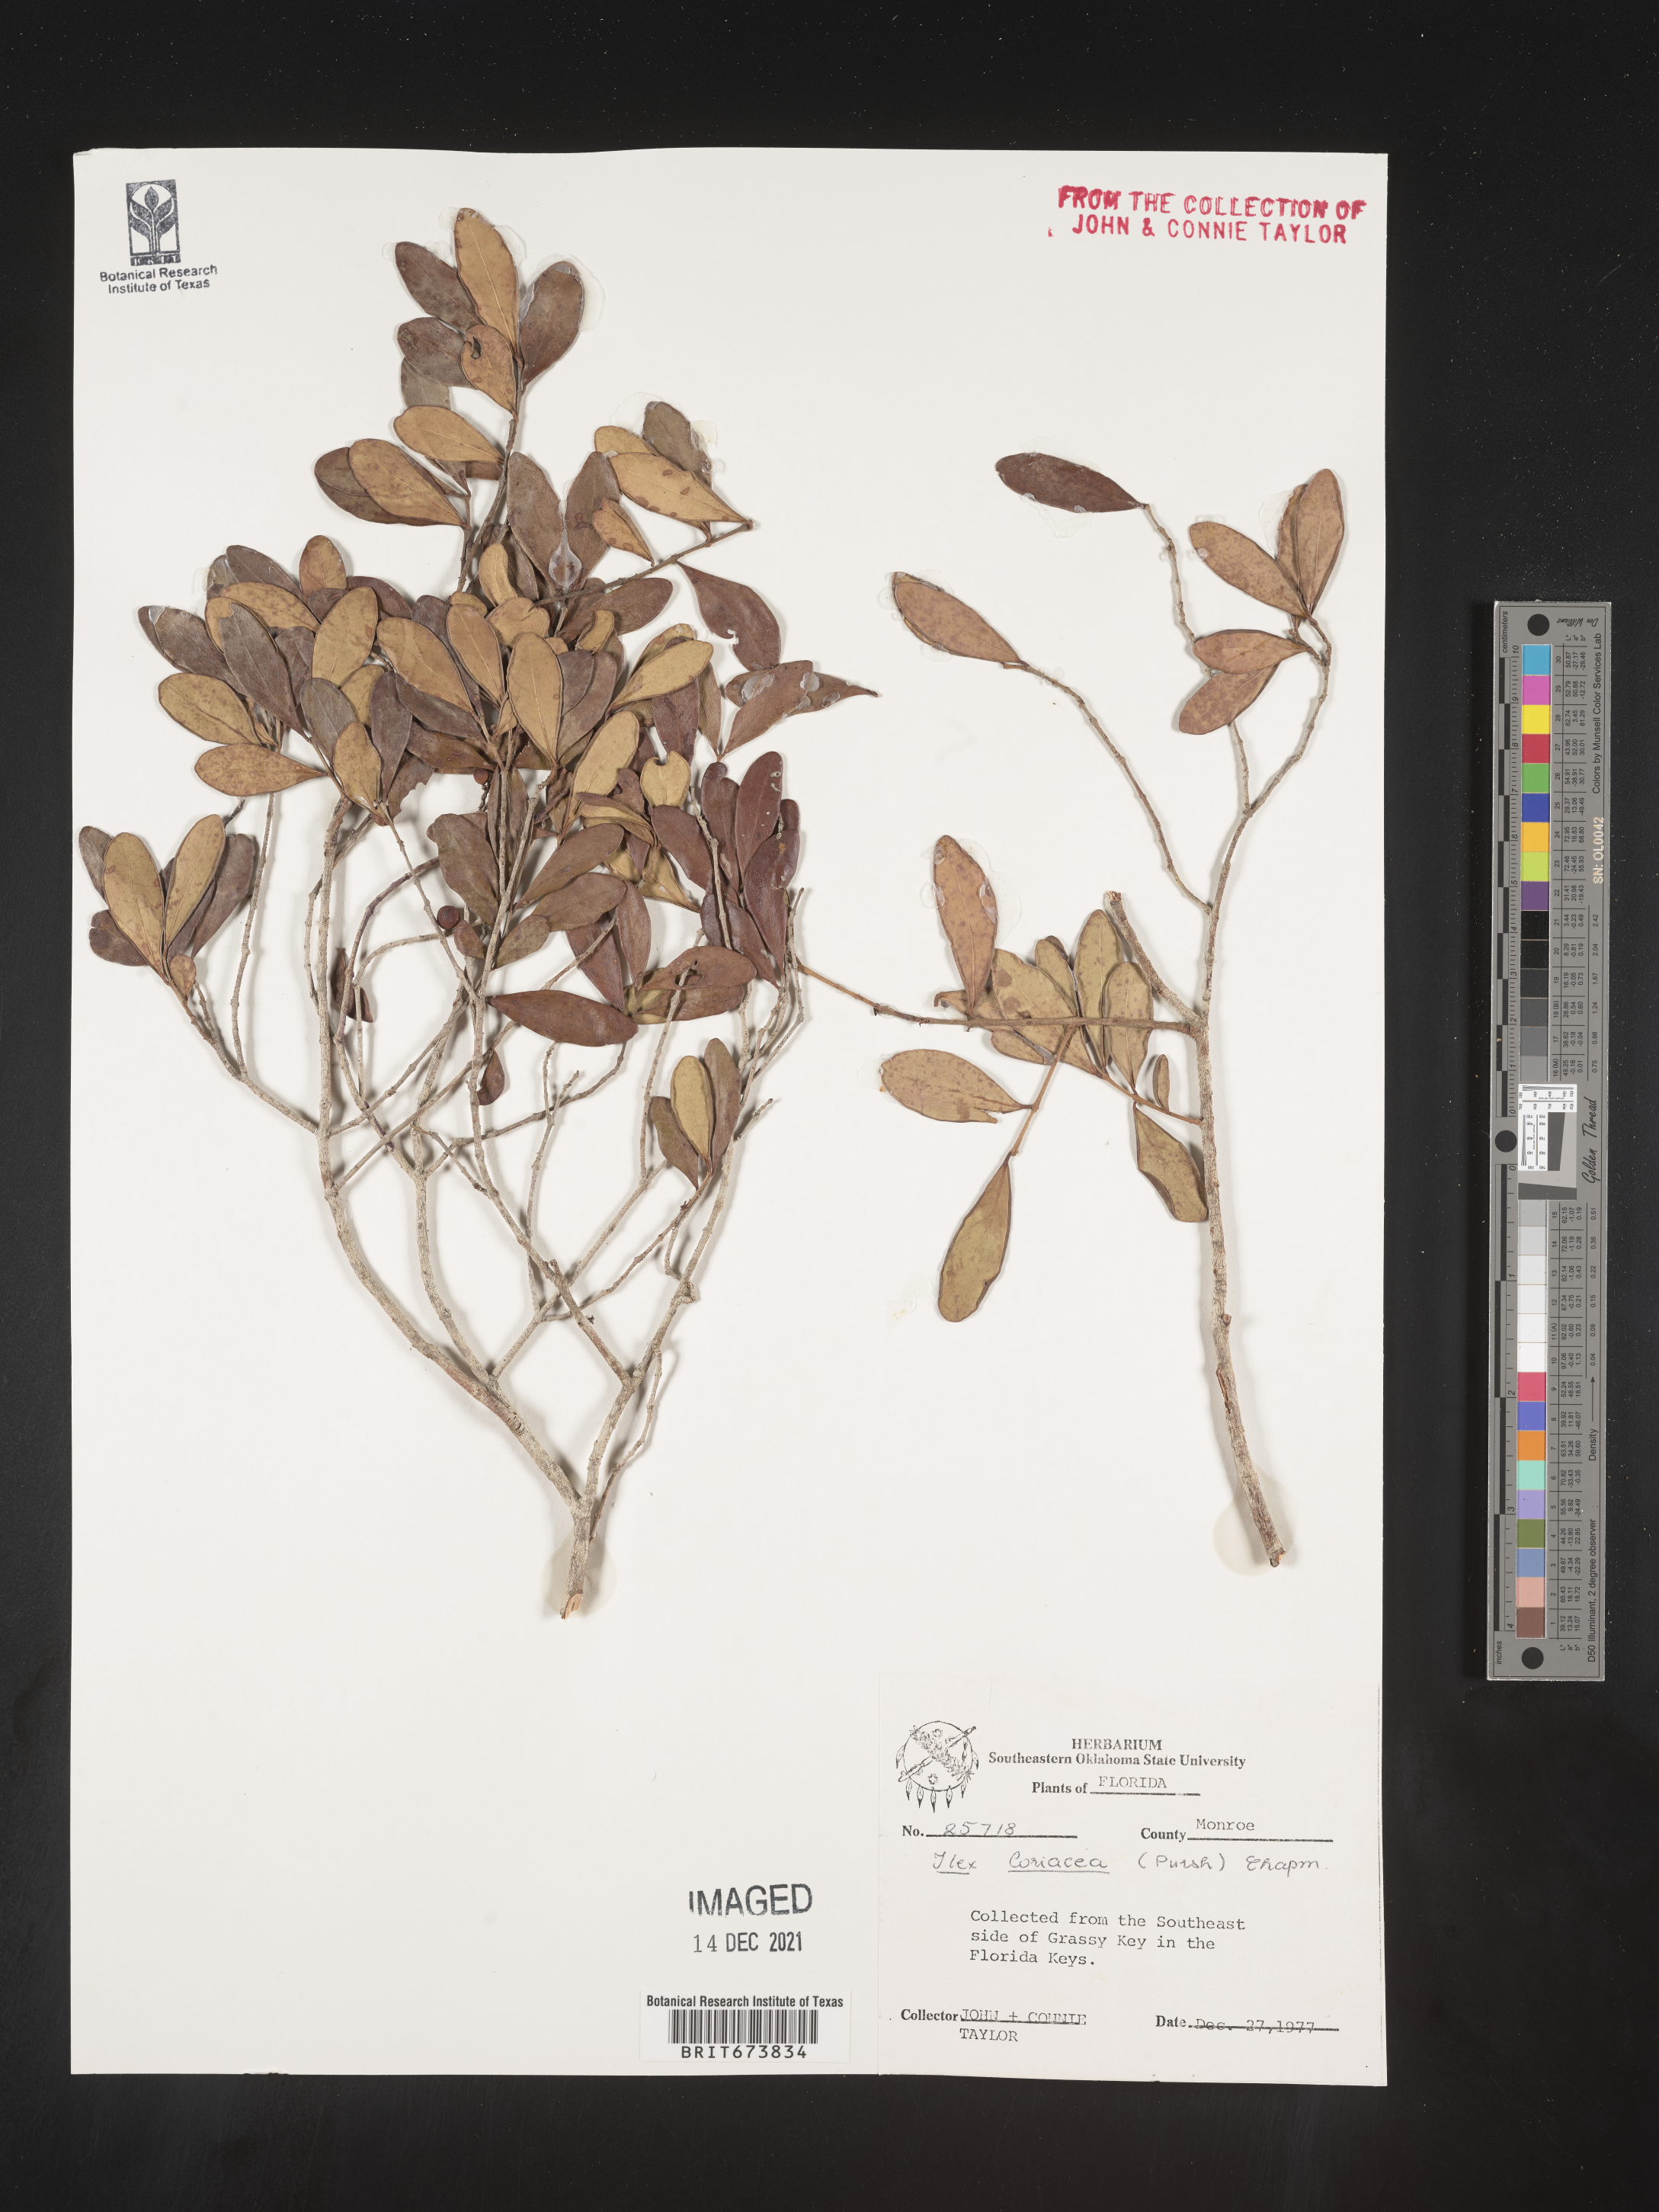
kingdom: Plantae
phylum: Tracheophyta
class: Magnoliopsida
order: Aquifoliales
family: Aquifoliaceae
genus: Ilex
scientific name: Ilex coriacea
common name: Sweet gallberry
